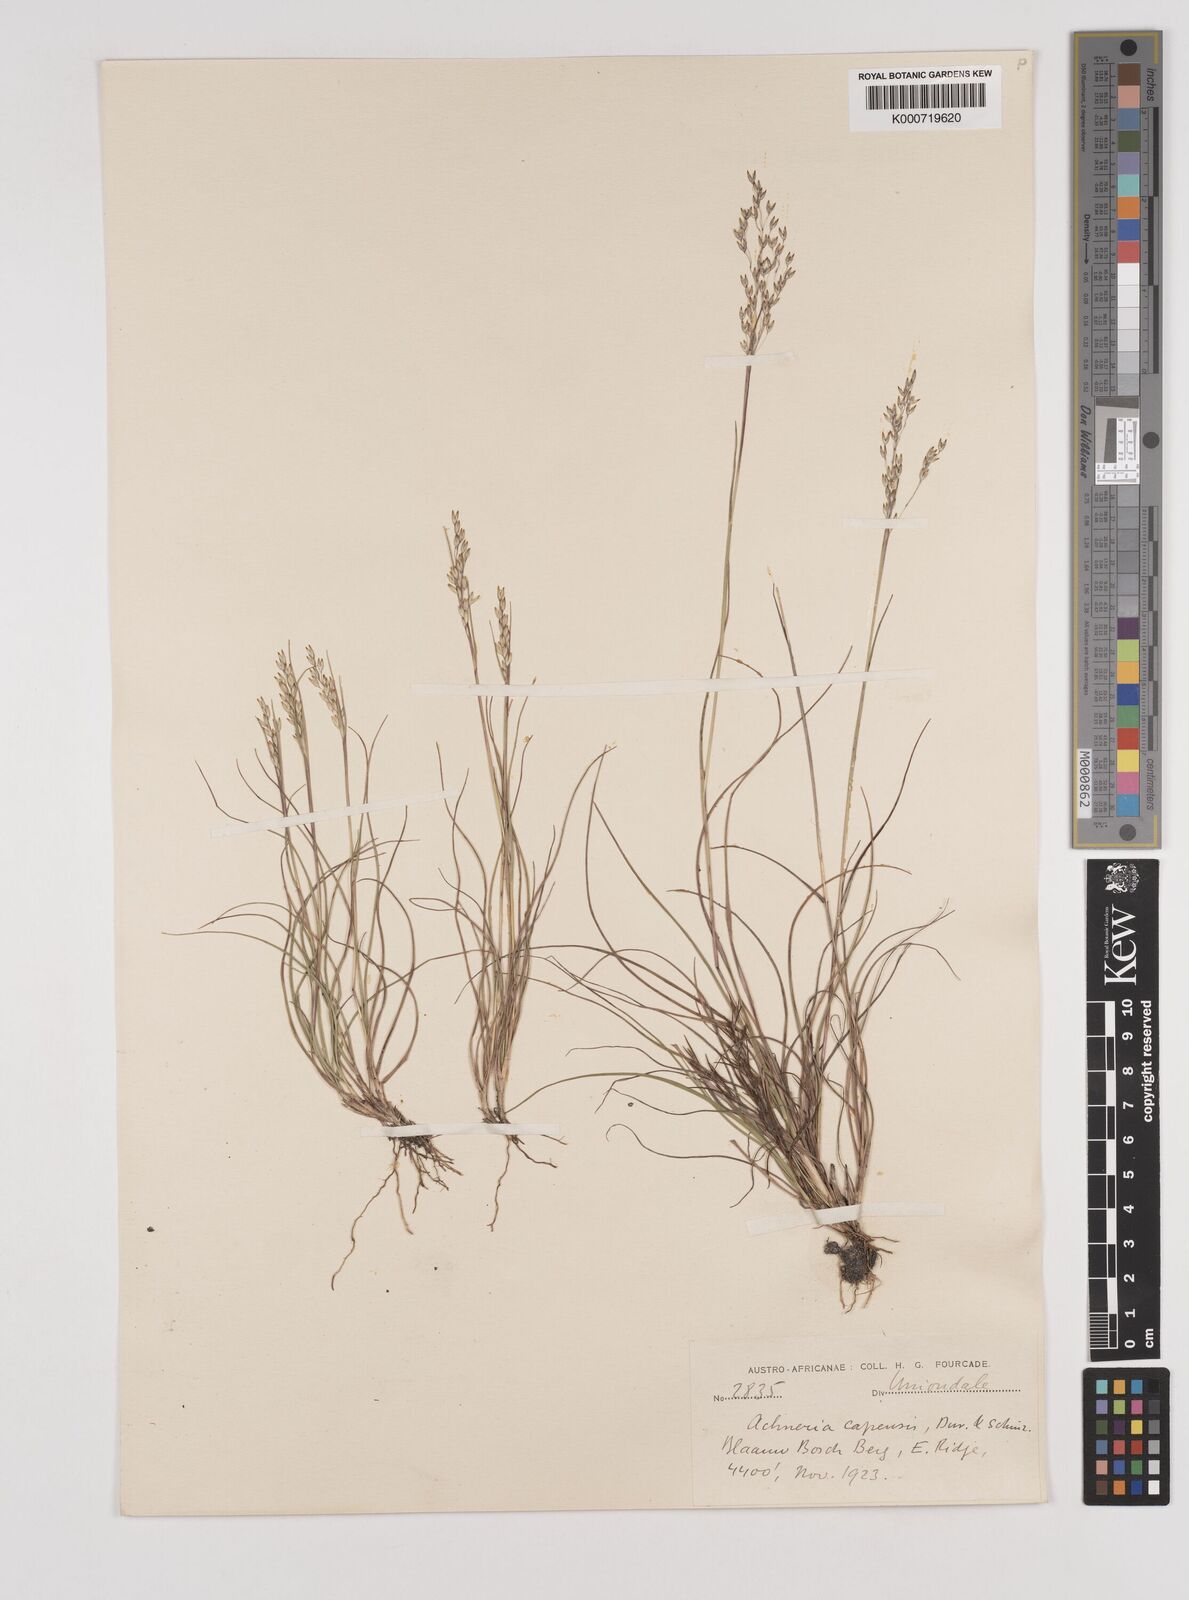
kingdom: Plantae
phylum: Tracheophyta
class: Liliopsida
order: Poales
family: Poaceae
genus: Pentameris
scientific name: Pentameris malouinensis
